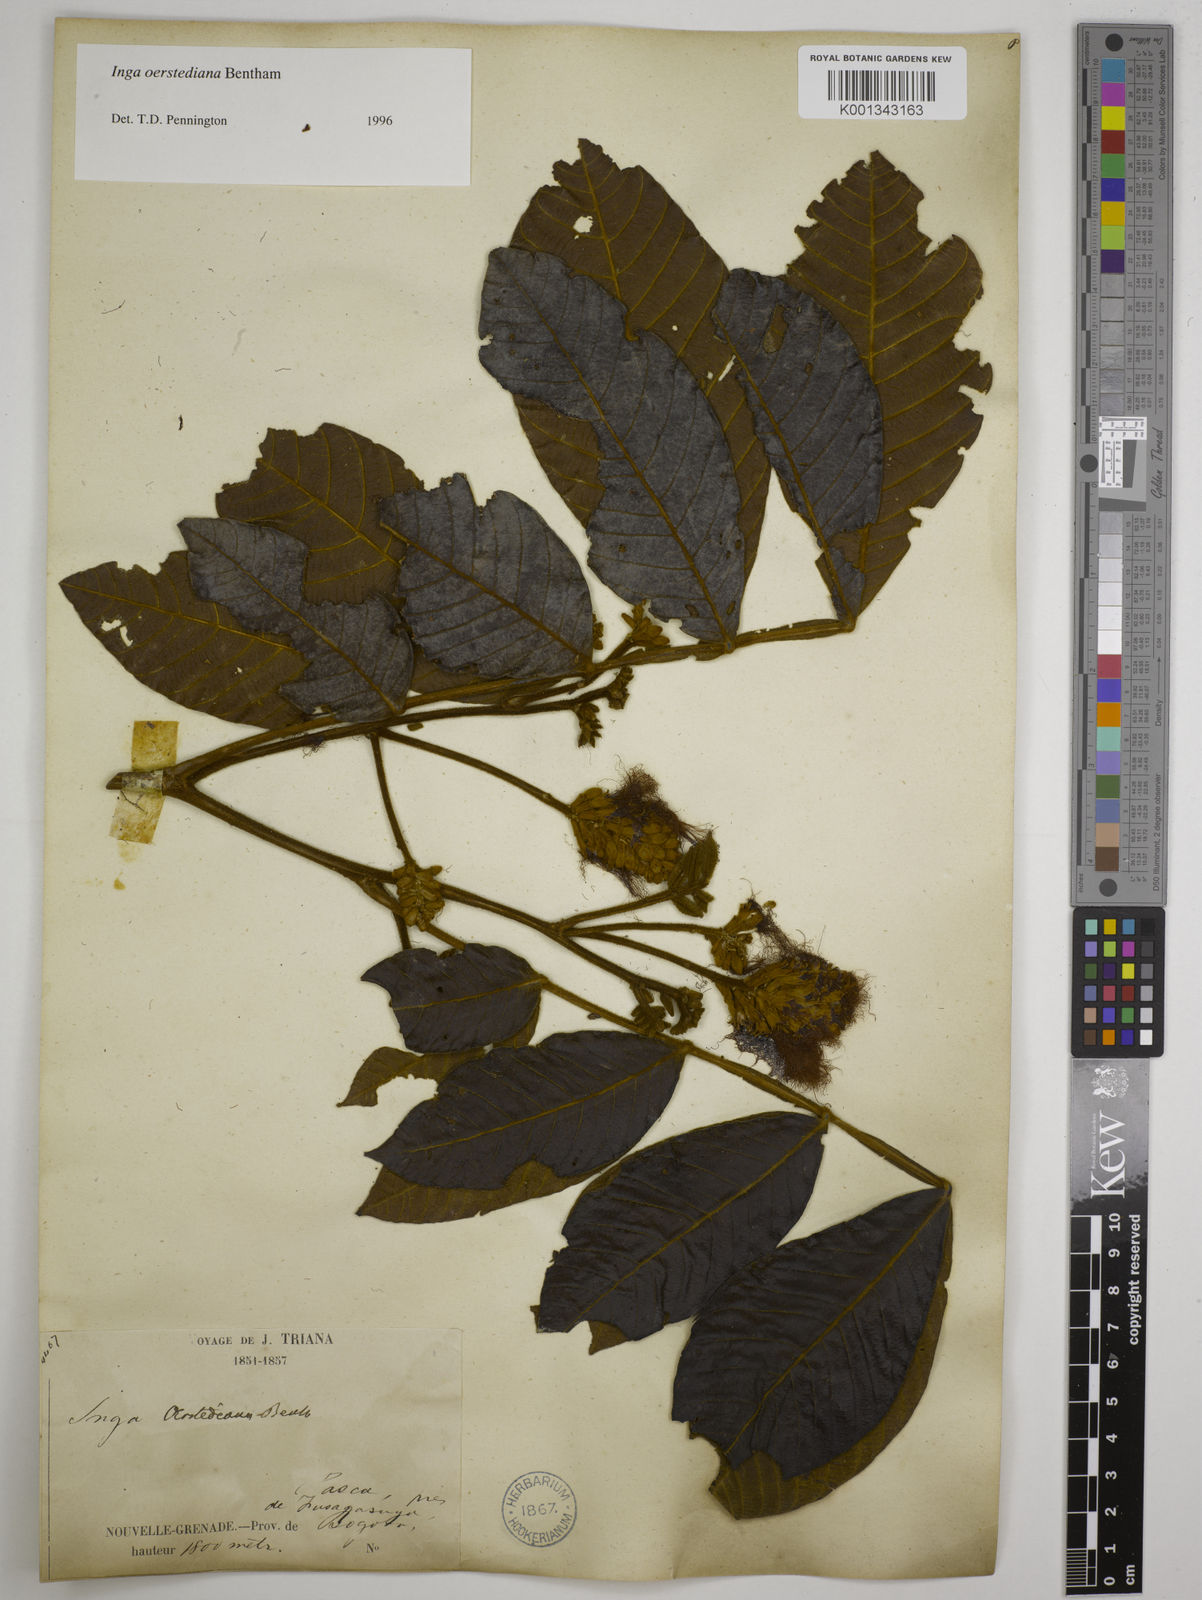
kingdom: Plantae
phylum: Tracheophyta
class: Magnoliopsida
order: Fabales
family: Fabaceae
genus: Inga
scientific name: Inga oerstediana
